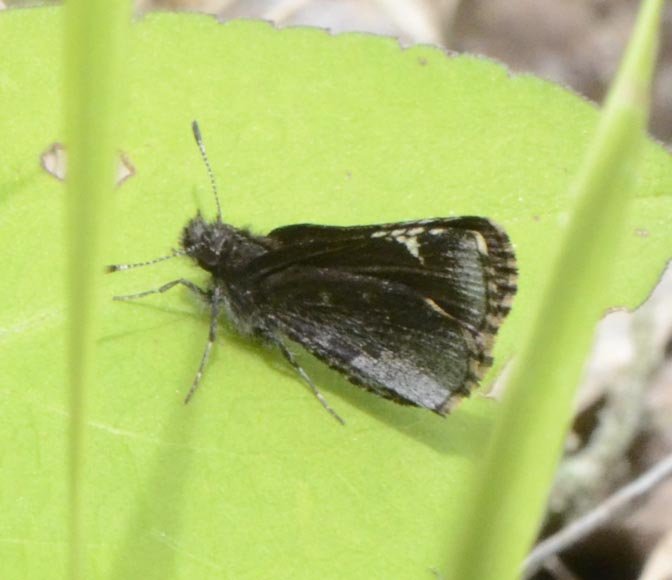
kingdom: Animalia
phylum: Arthropoda
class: Insecta
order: Lepidoptera
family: Hesperiidae
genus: Mastor
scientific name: Mastor vialis
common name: Common Roadside-Skipper
